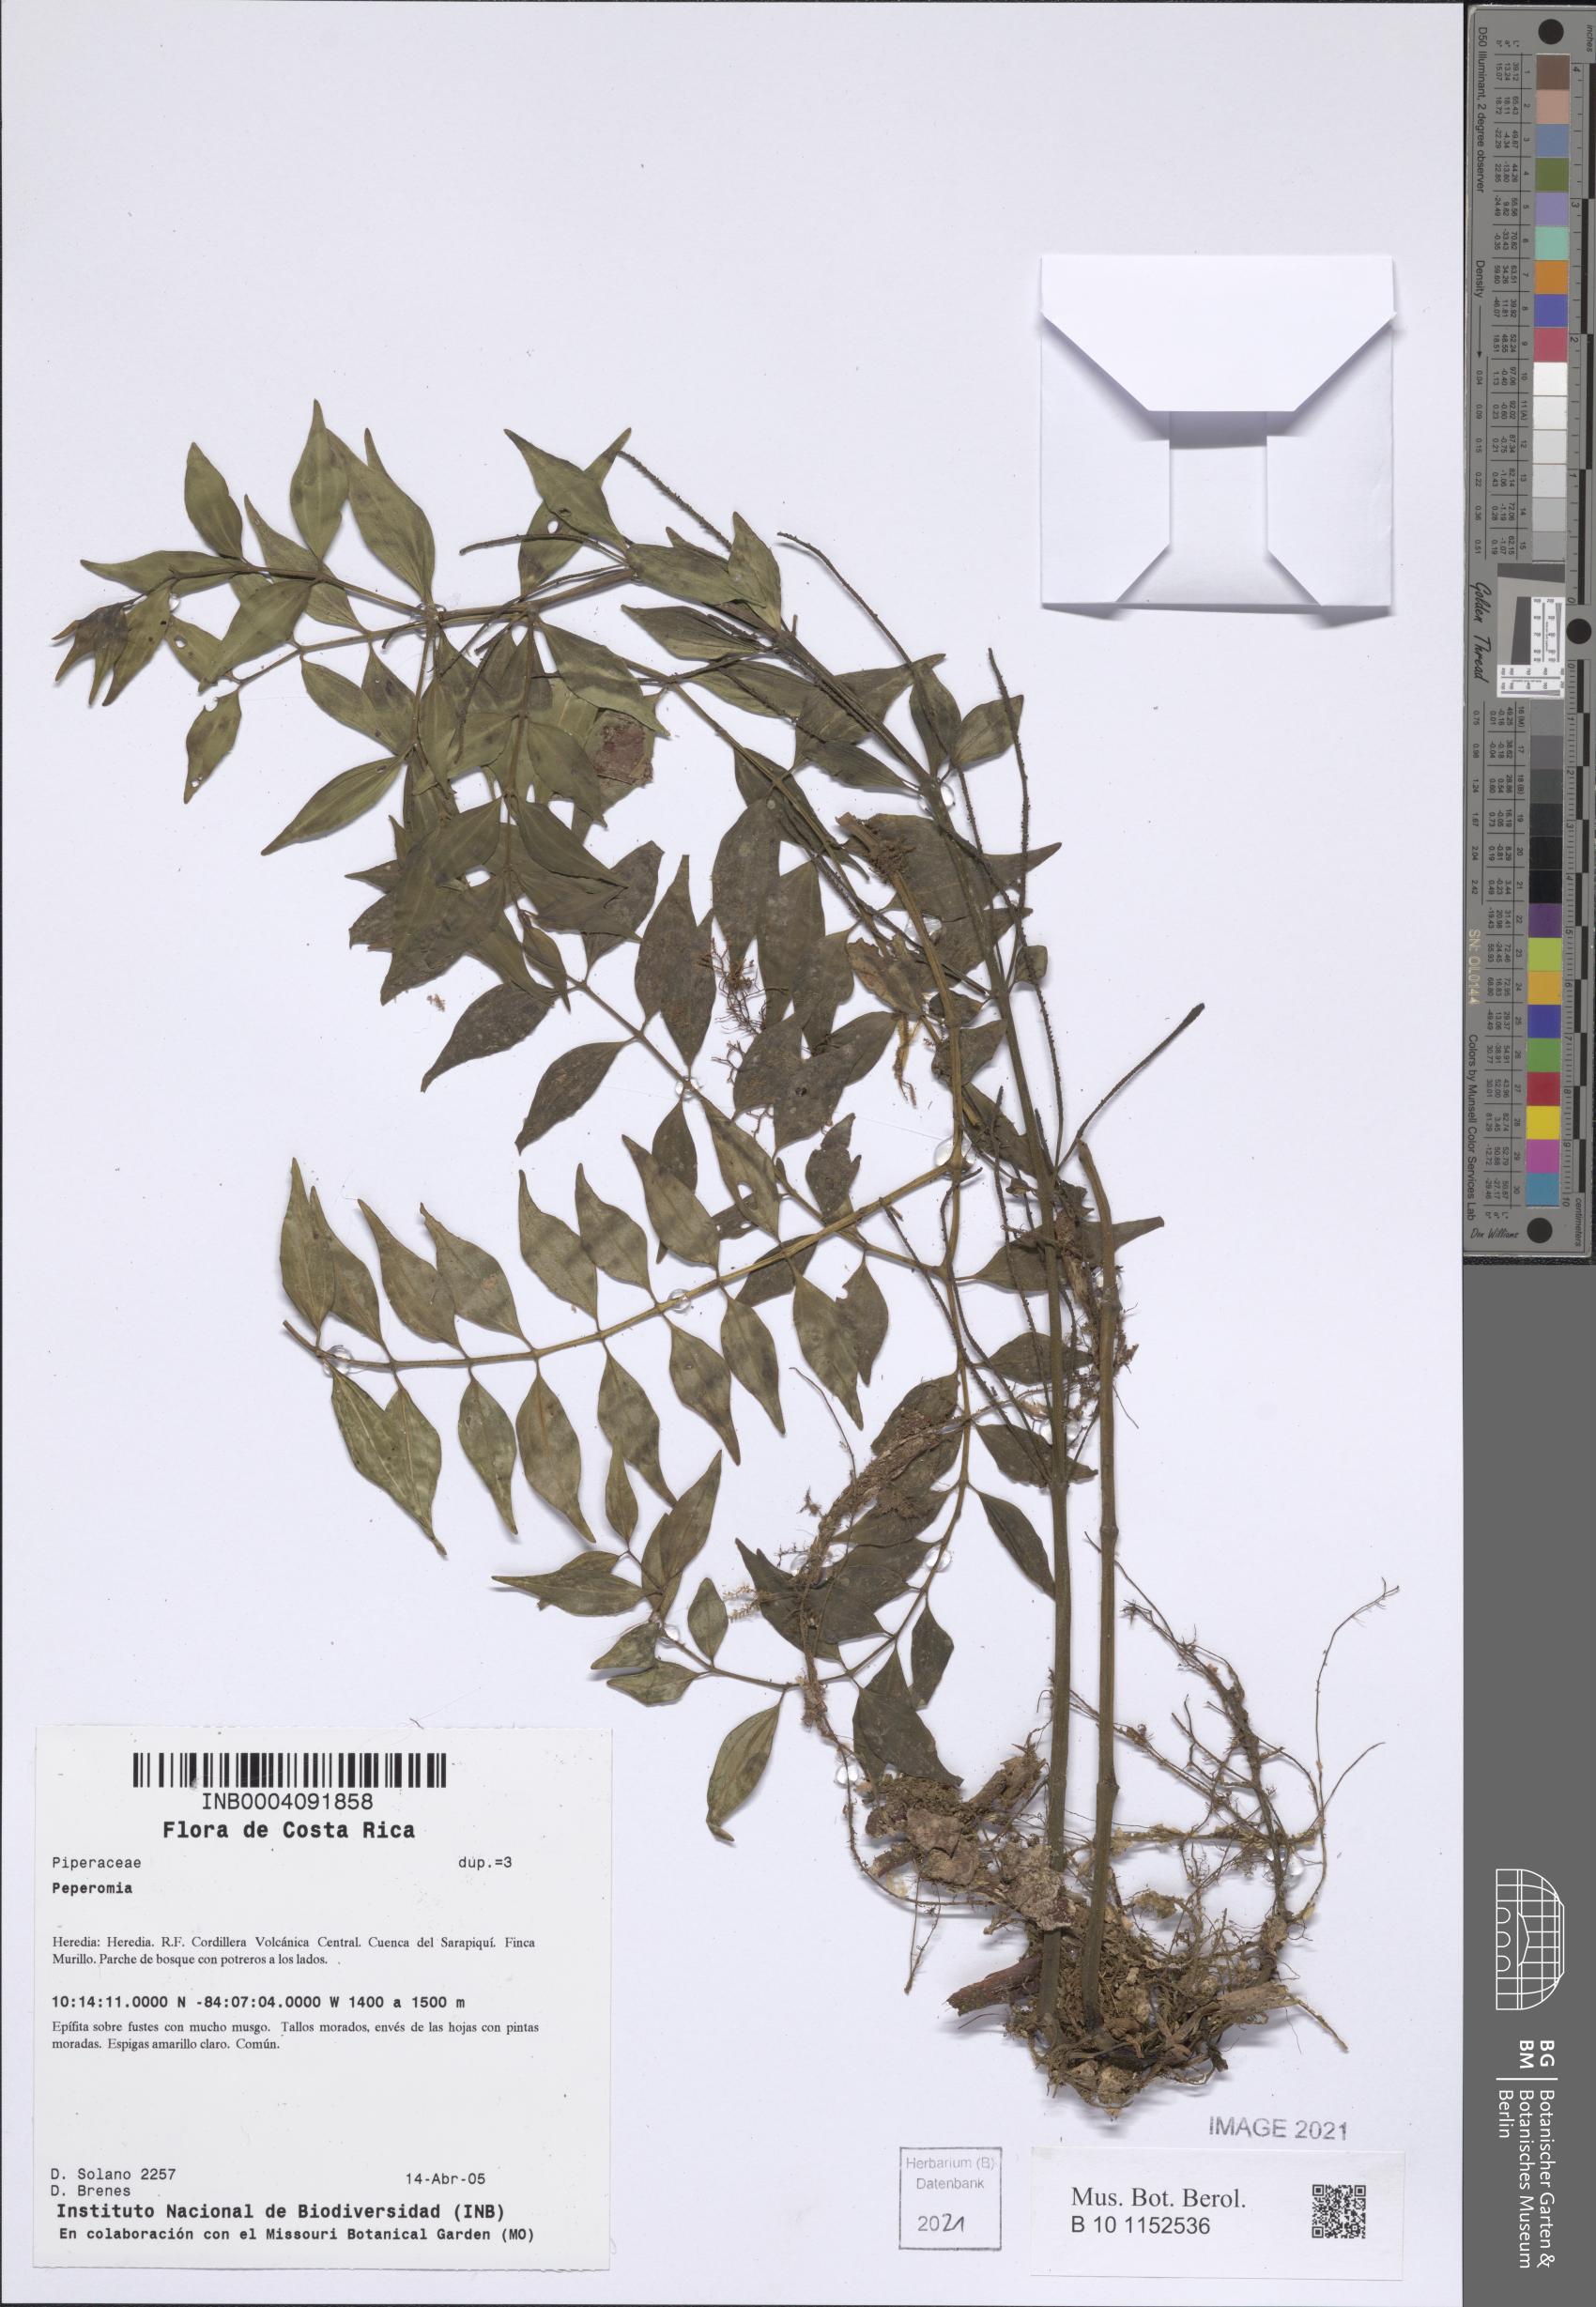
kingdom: Plantae
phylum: Tracheophyta
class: Magnoliopsida
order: Piperales
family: Piperaceae
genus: Peperomia
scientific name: Peperomia
